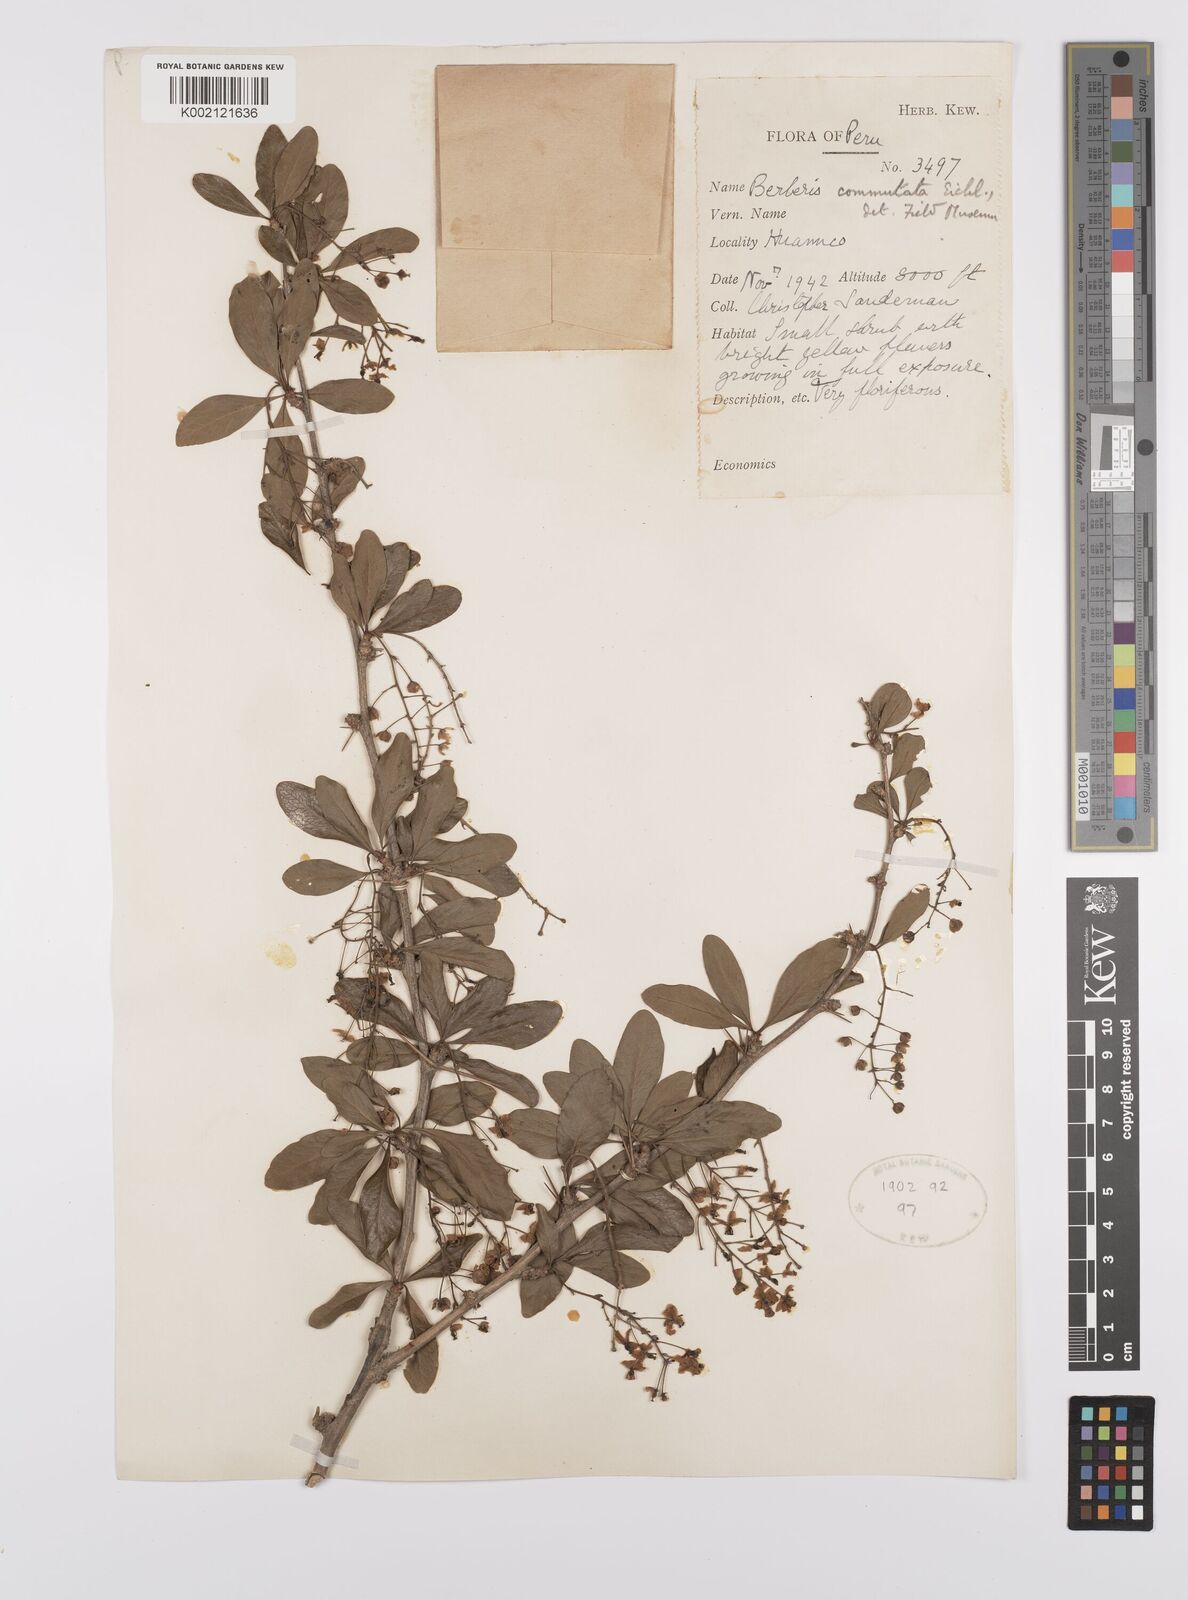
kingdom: Plantae
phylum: Tracheophyta
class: Magnoliopsida
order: Ranunculales
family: Berberidaceae
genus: Berberis
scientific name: Berberis commutata
